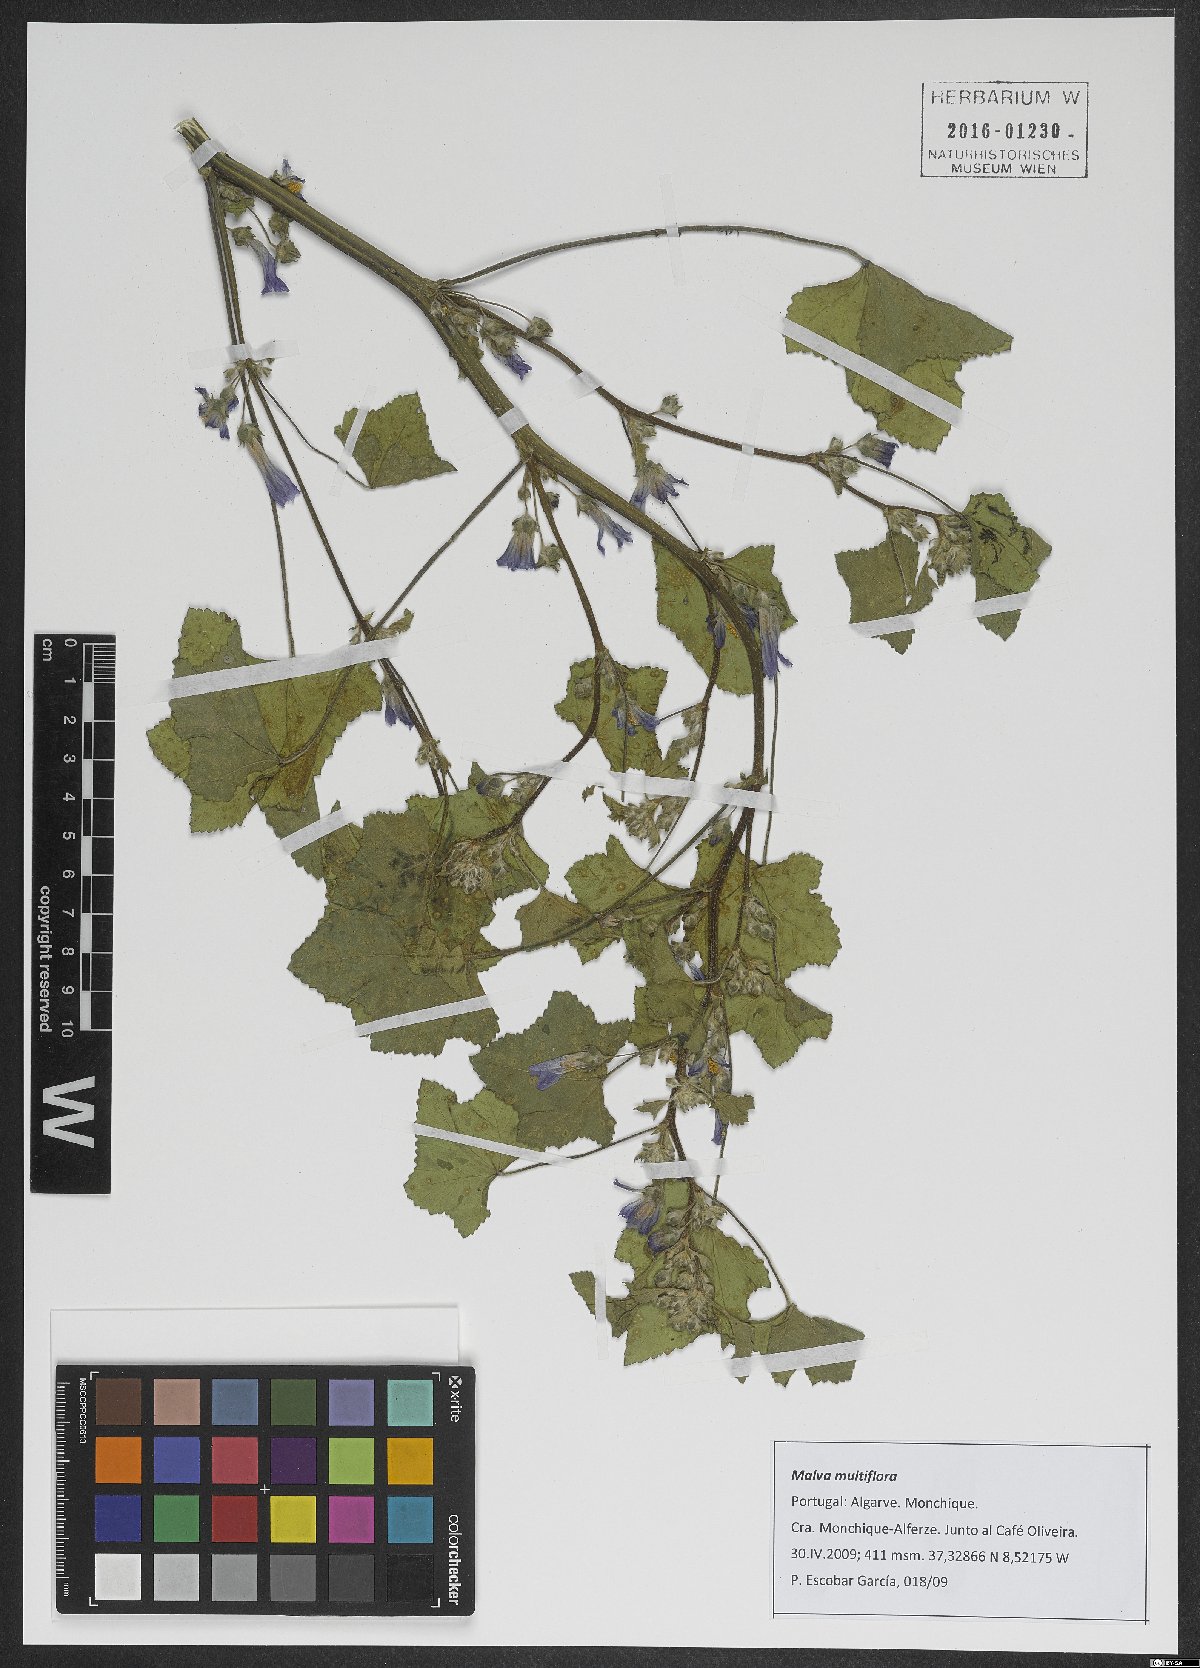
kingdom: Plantae
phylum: Tracheophyta
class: Magnoliopsida
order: Malvales
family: Malvaceae
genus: Malva
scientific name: Malva multiflora
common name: Cheeseweed
